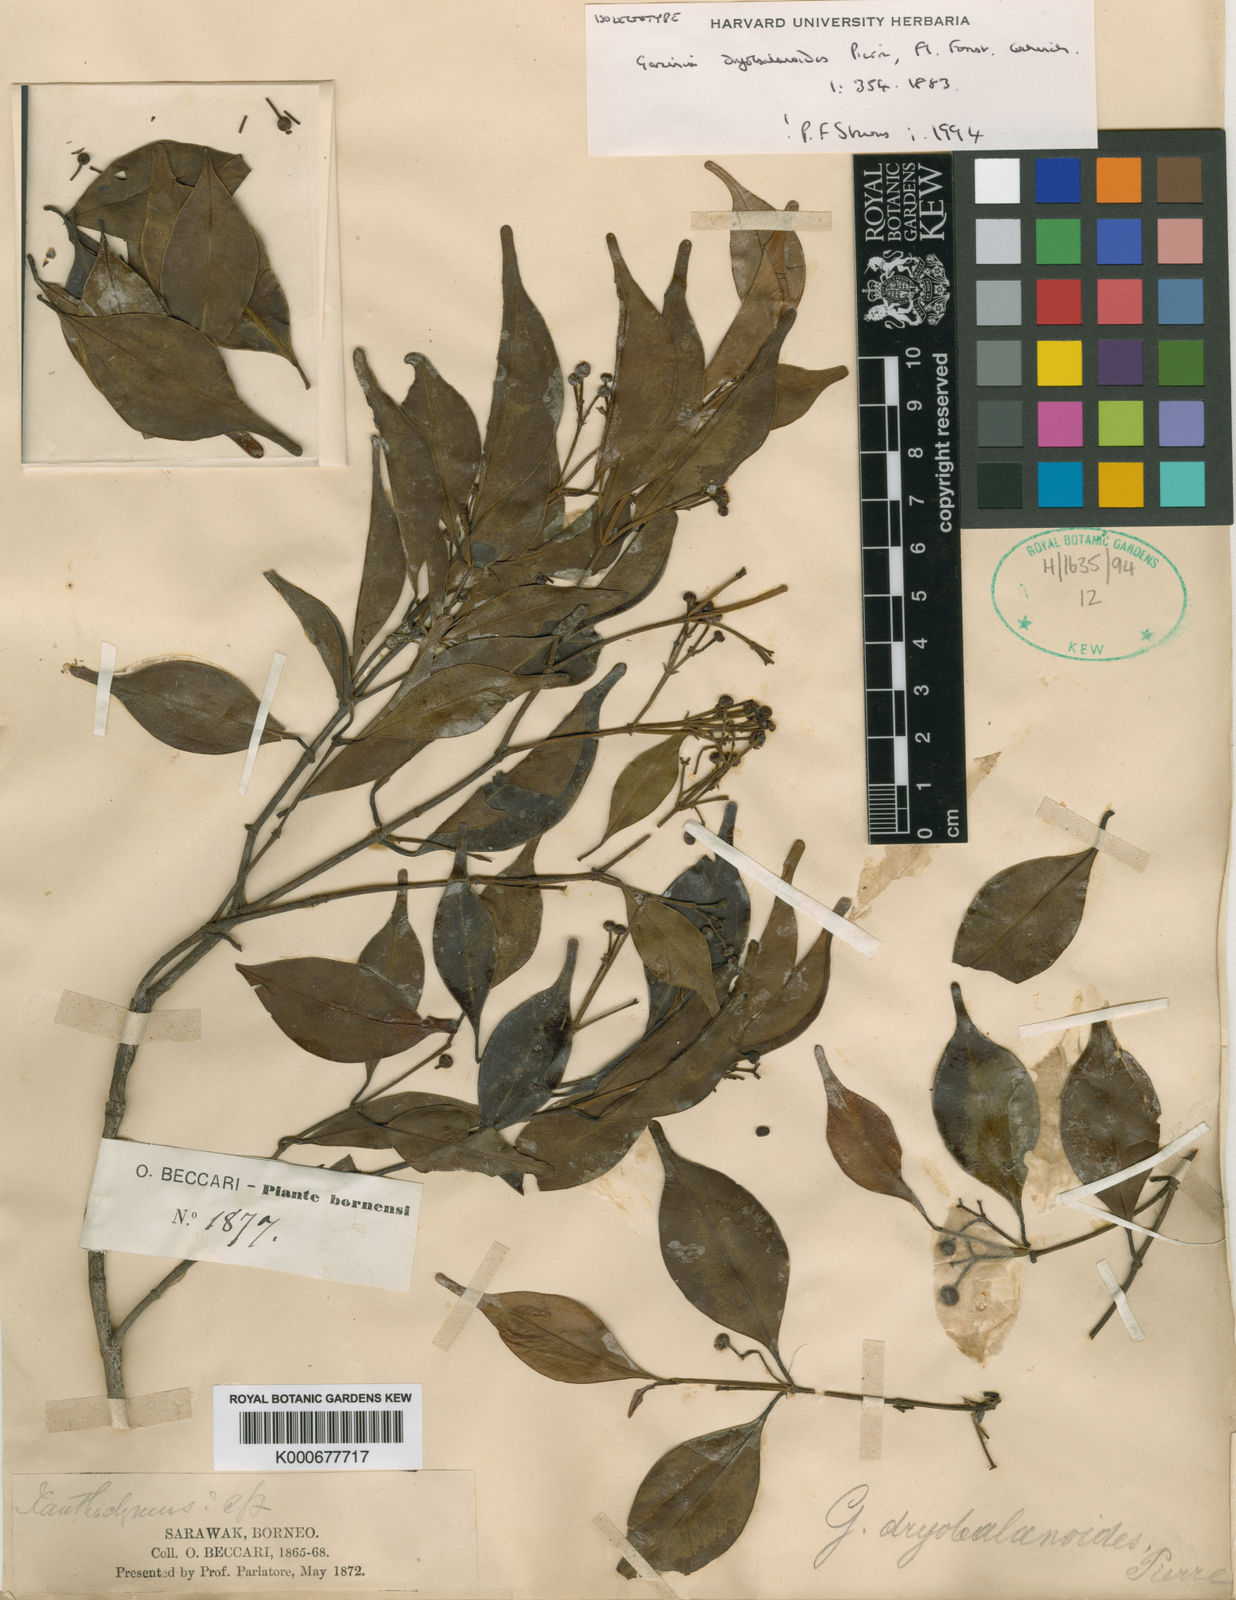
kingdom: Plantae
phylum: Tracheophyta
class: Magnoliopsida
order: Malpighiales
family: Clusiaceae
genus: Garcinia
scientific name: Garcinia dryobalanoides
